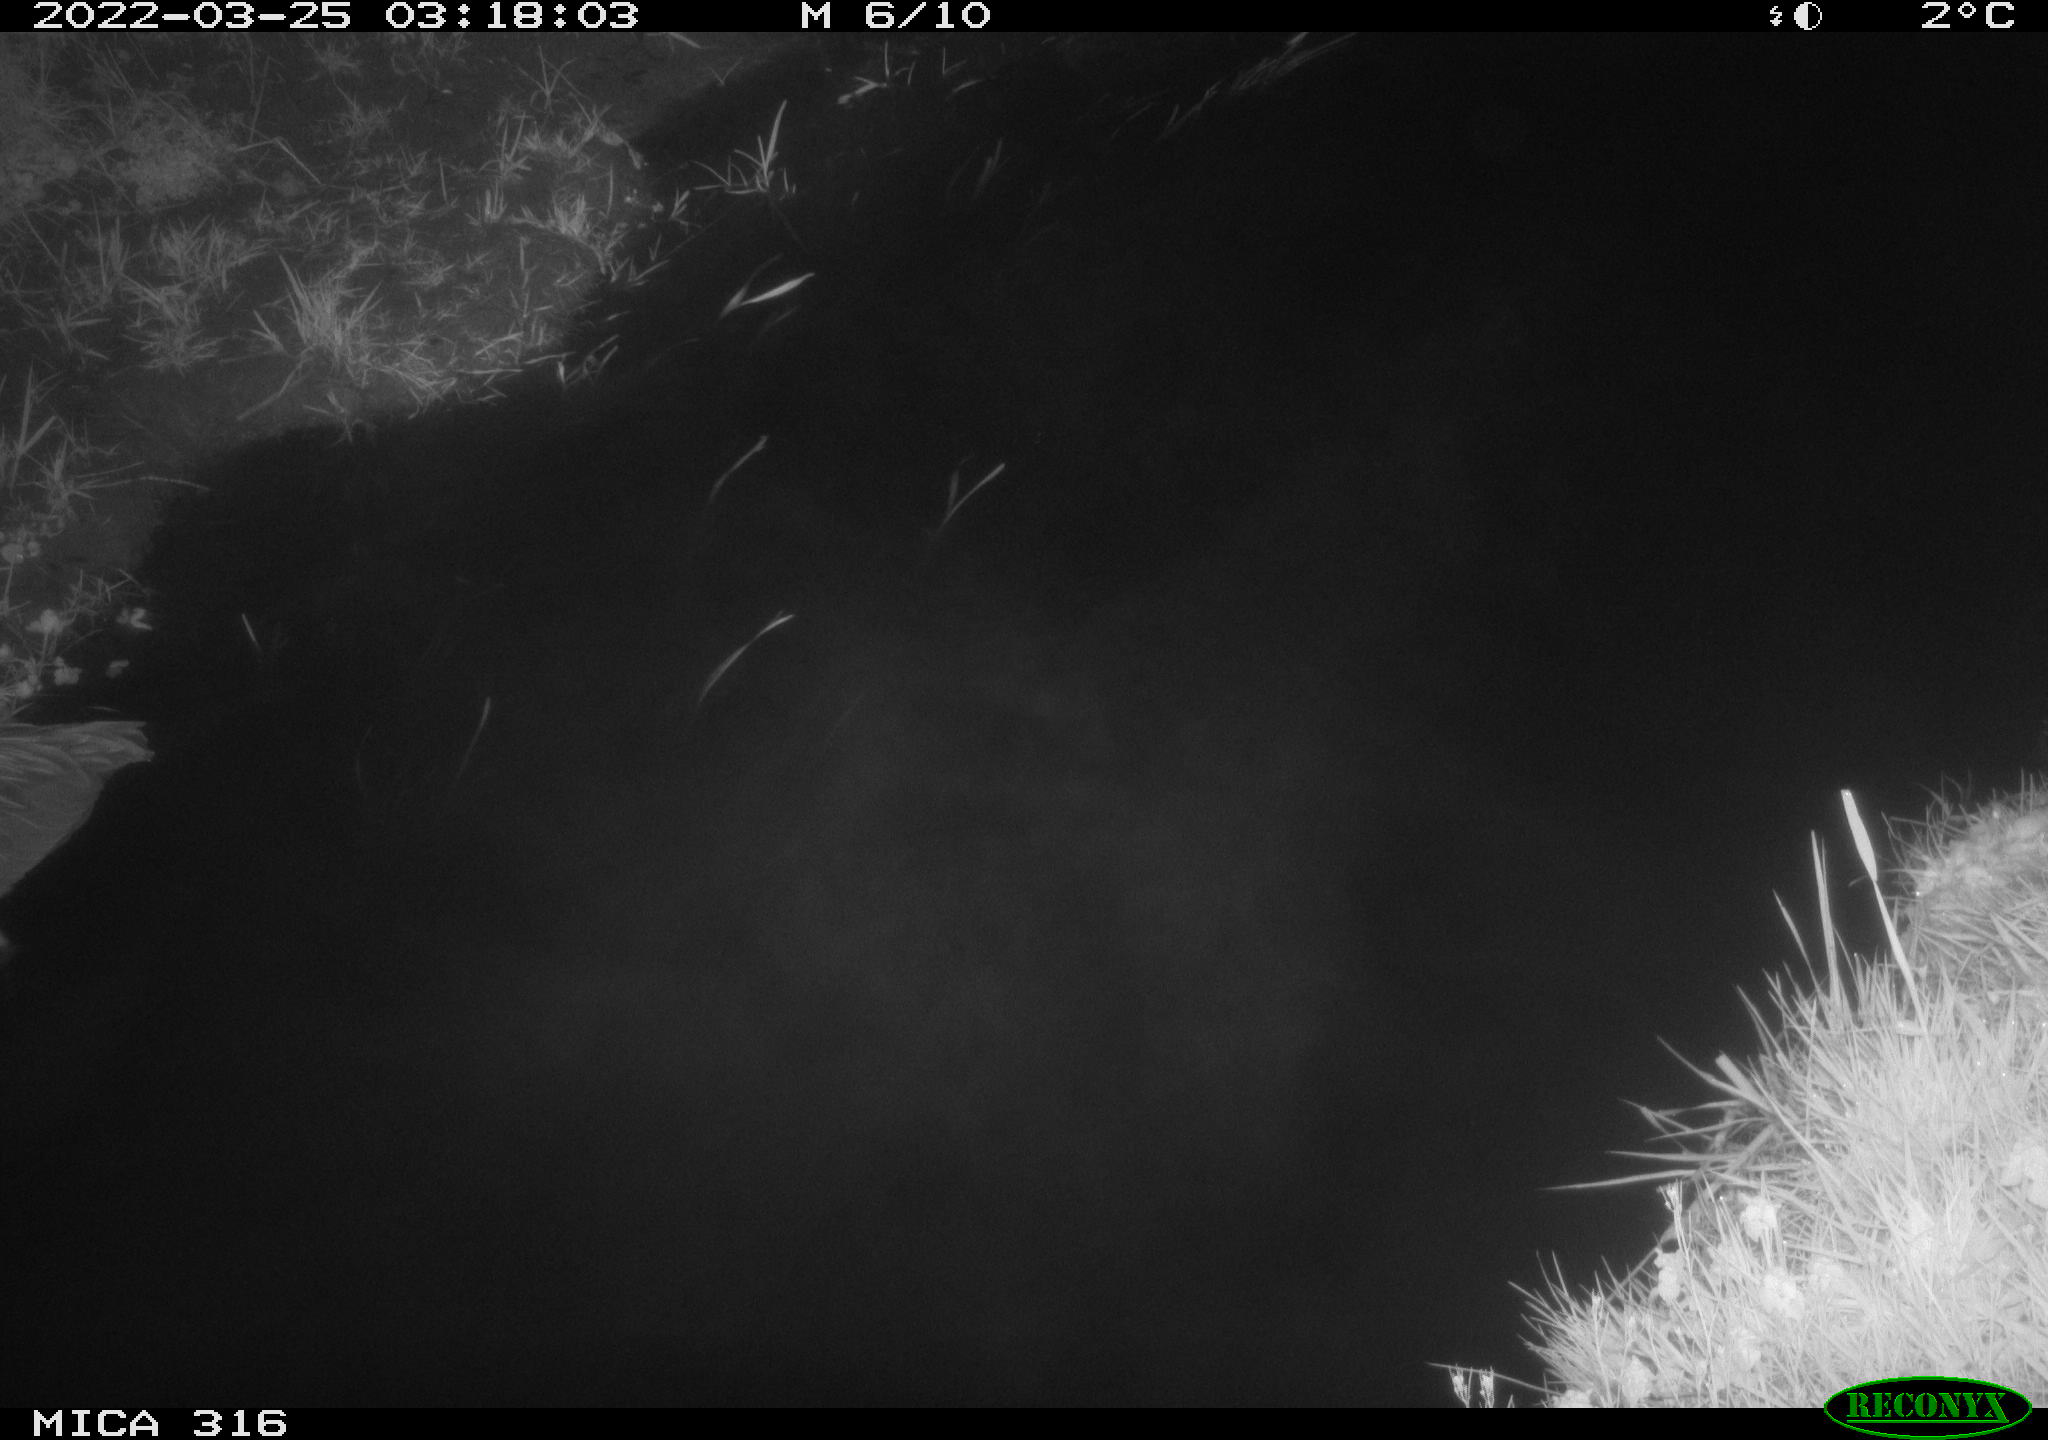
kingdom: Animalia
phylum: Chordata
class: Aves
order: Anseriformes
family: Anatidae
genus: Anas
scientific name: Anas platyrhynchos
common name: Mallard
